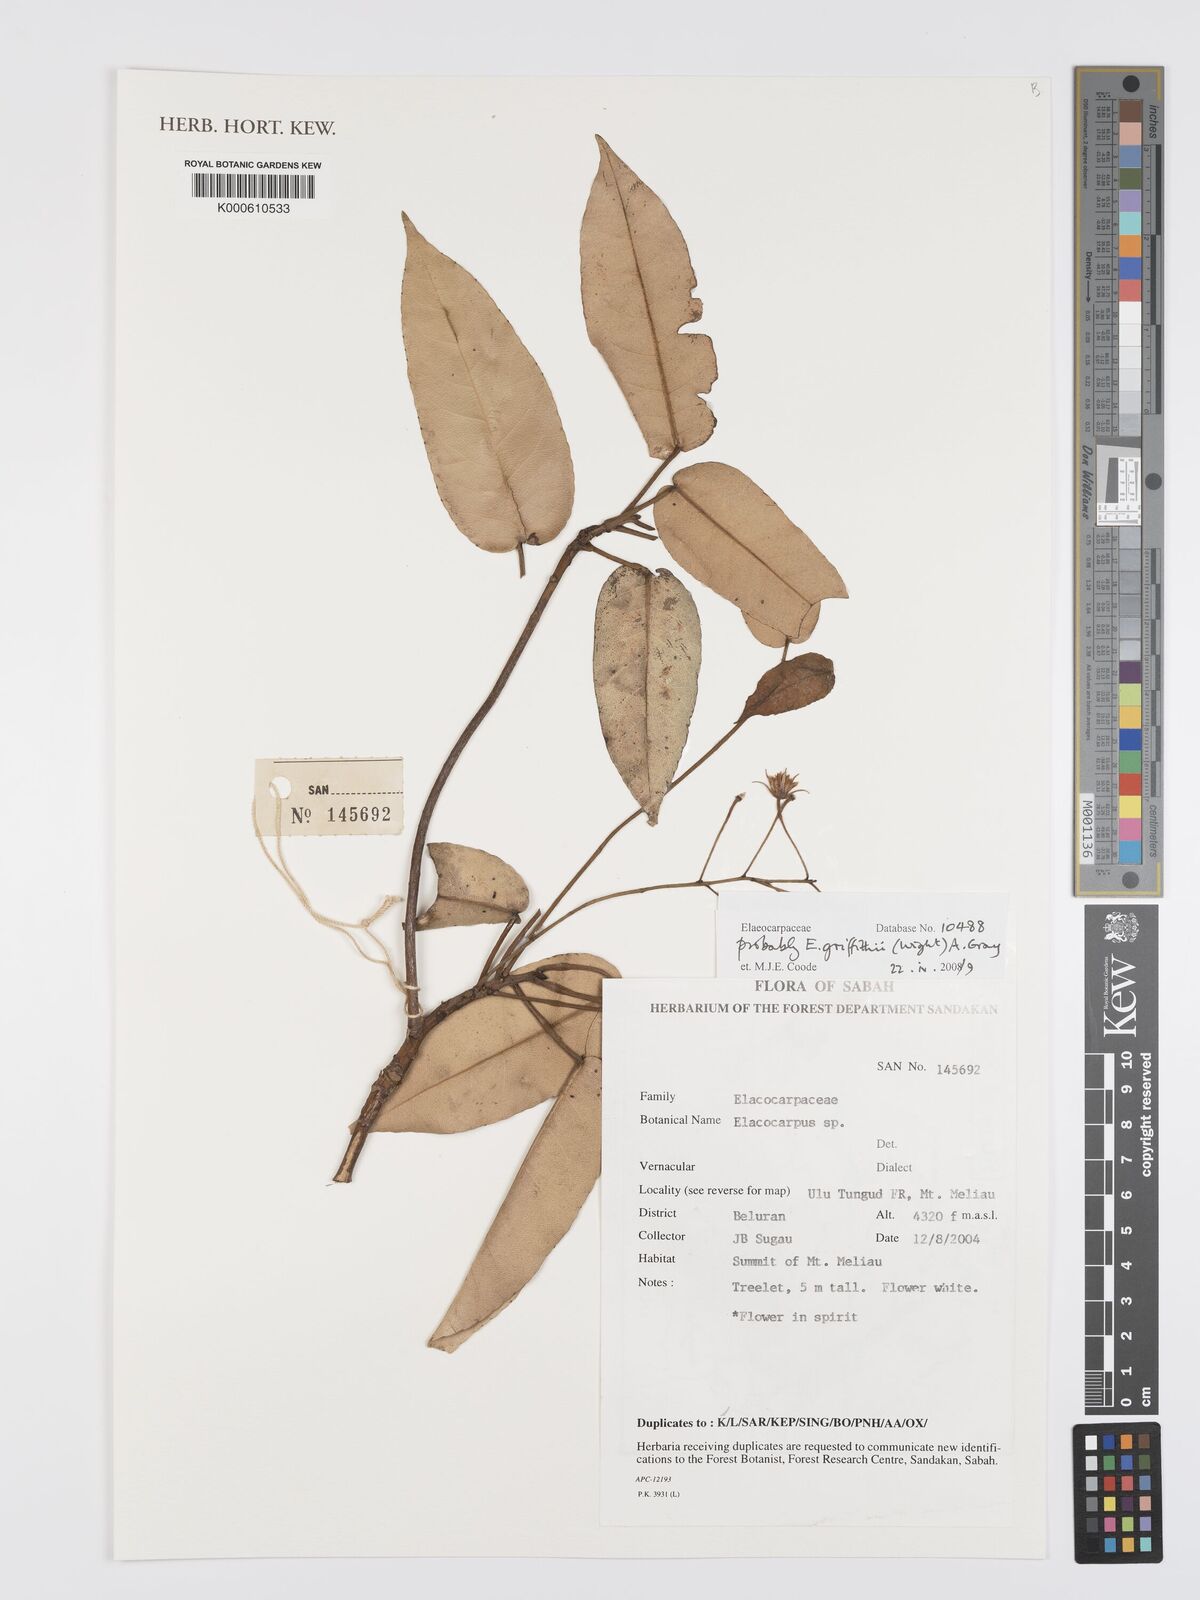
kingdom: Plantae
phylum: Tracheophyta
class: Magnoliopsida
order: Oxalidales
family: Elaeocarpaceae
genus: Elaeocarpus
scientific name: Elaeocarpus
